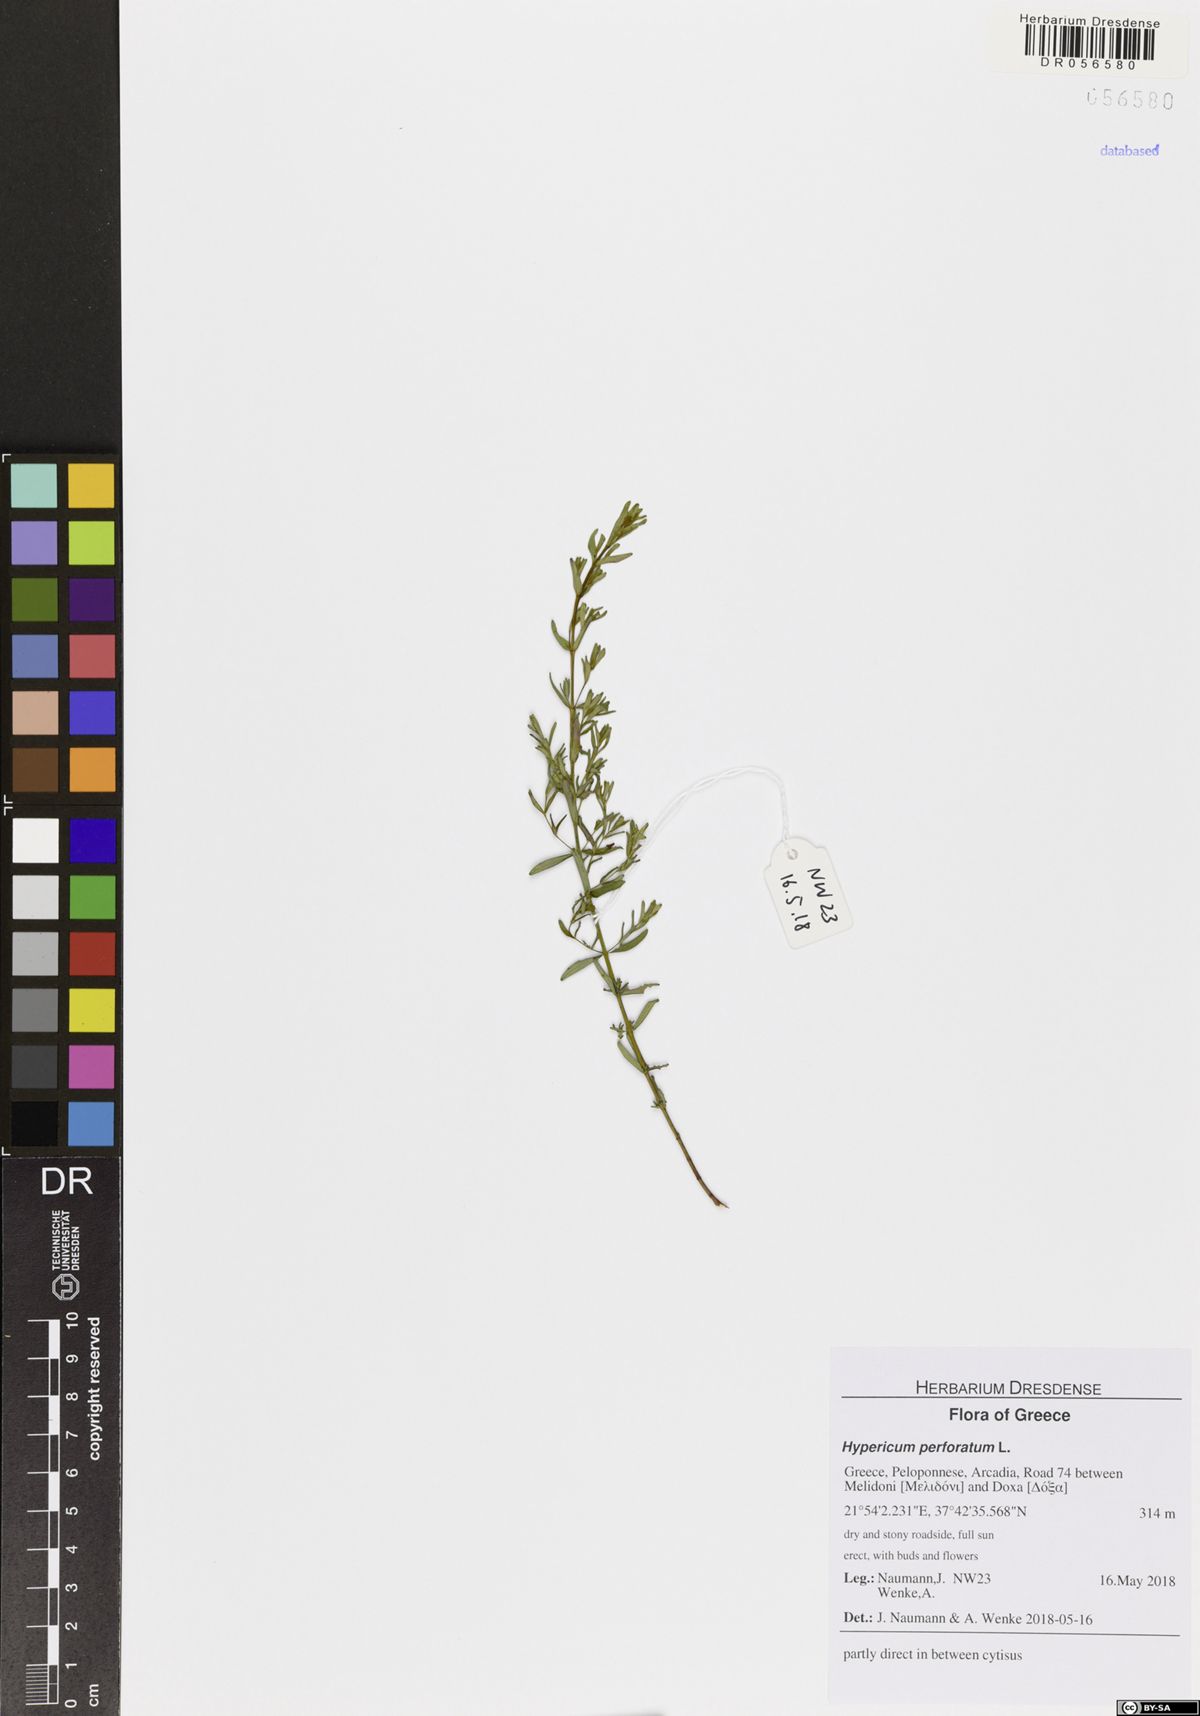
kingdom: Plantae
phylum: Tracheophyta
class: Magnoliopsida
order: Malpighiales
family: Hypericaceae
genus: Hypericum
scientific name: Hypericum perforatum
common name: Common st. johnswort
